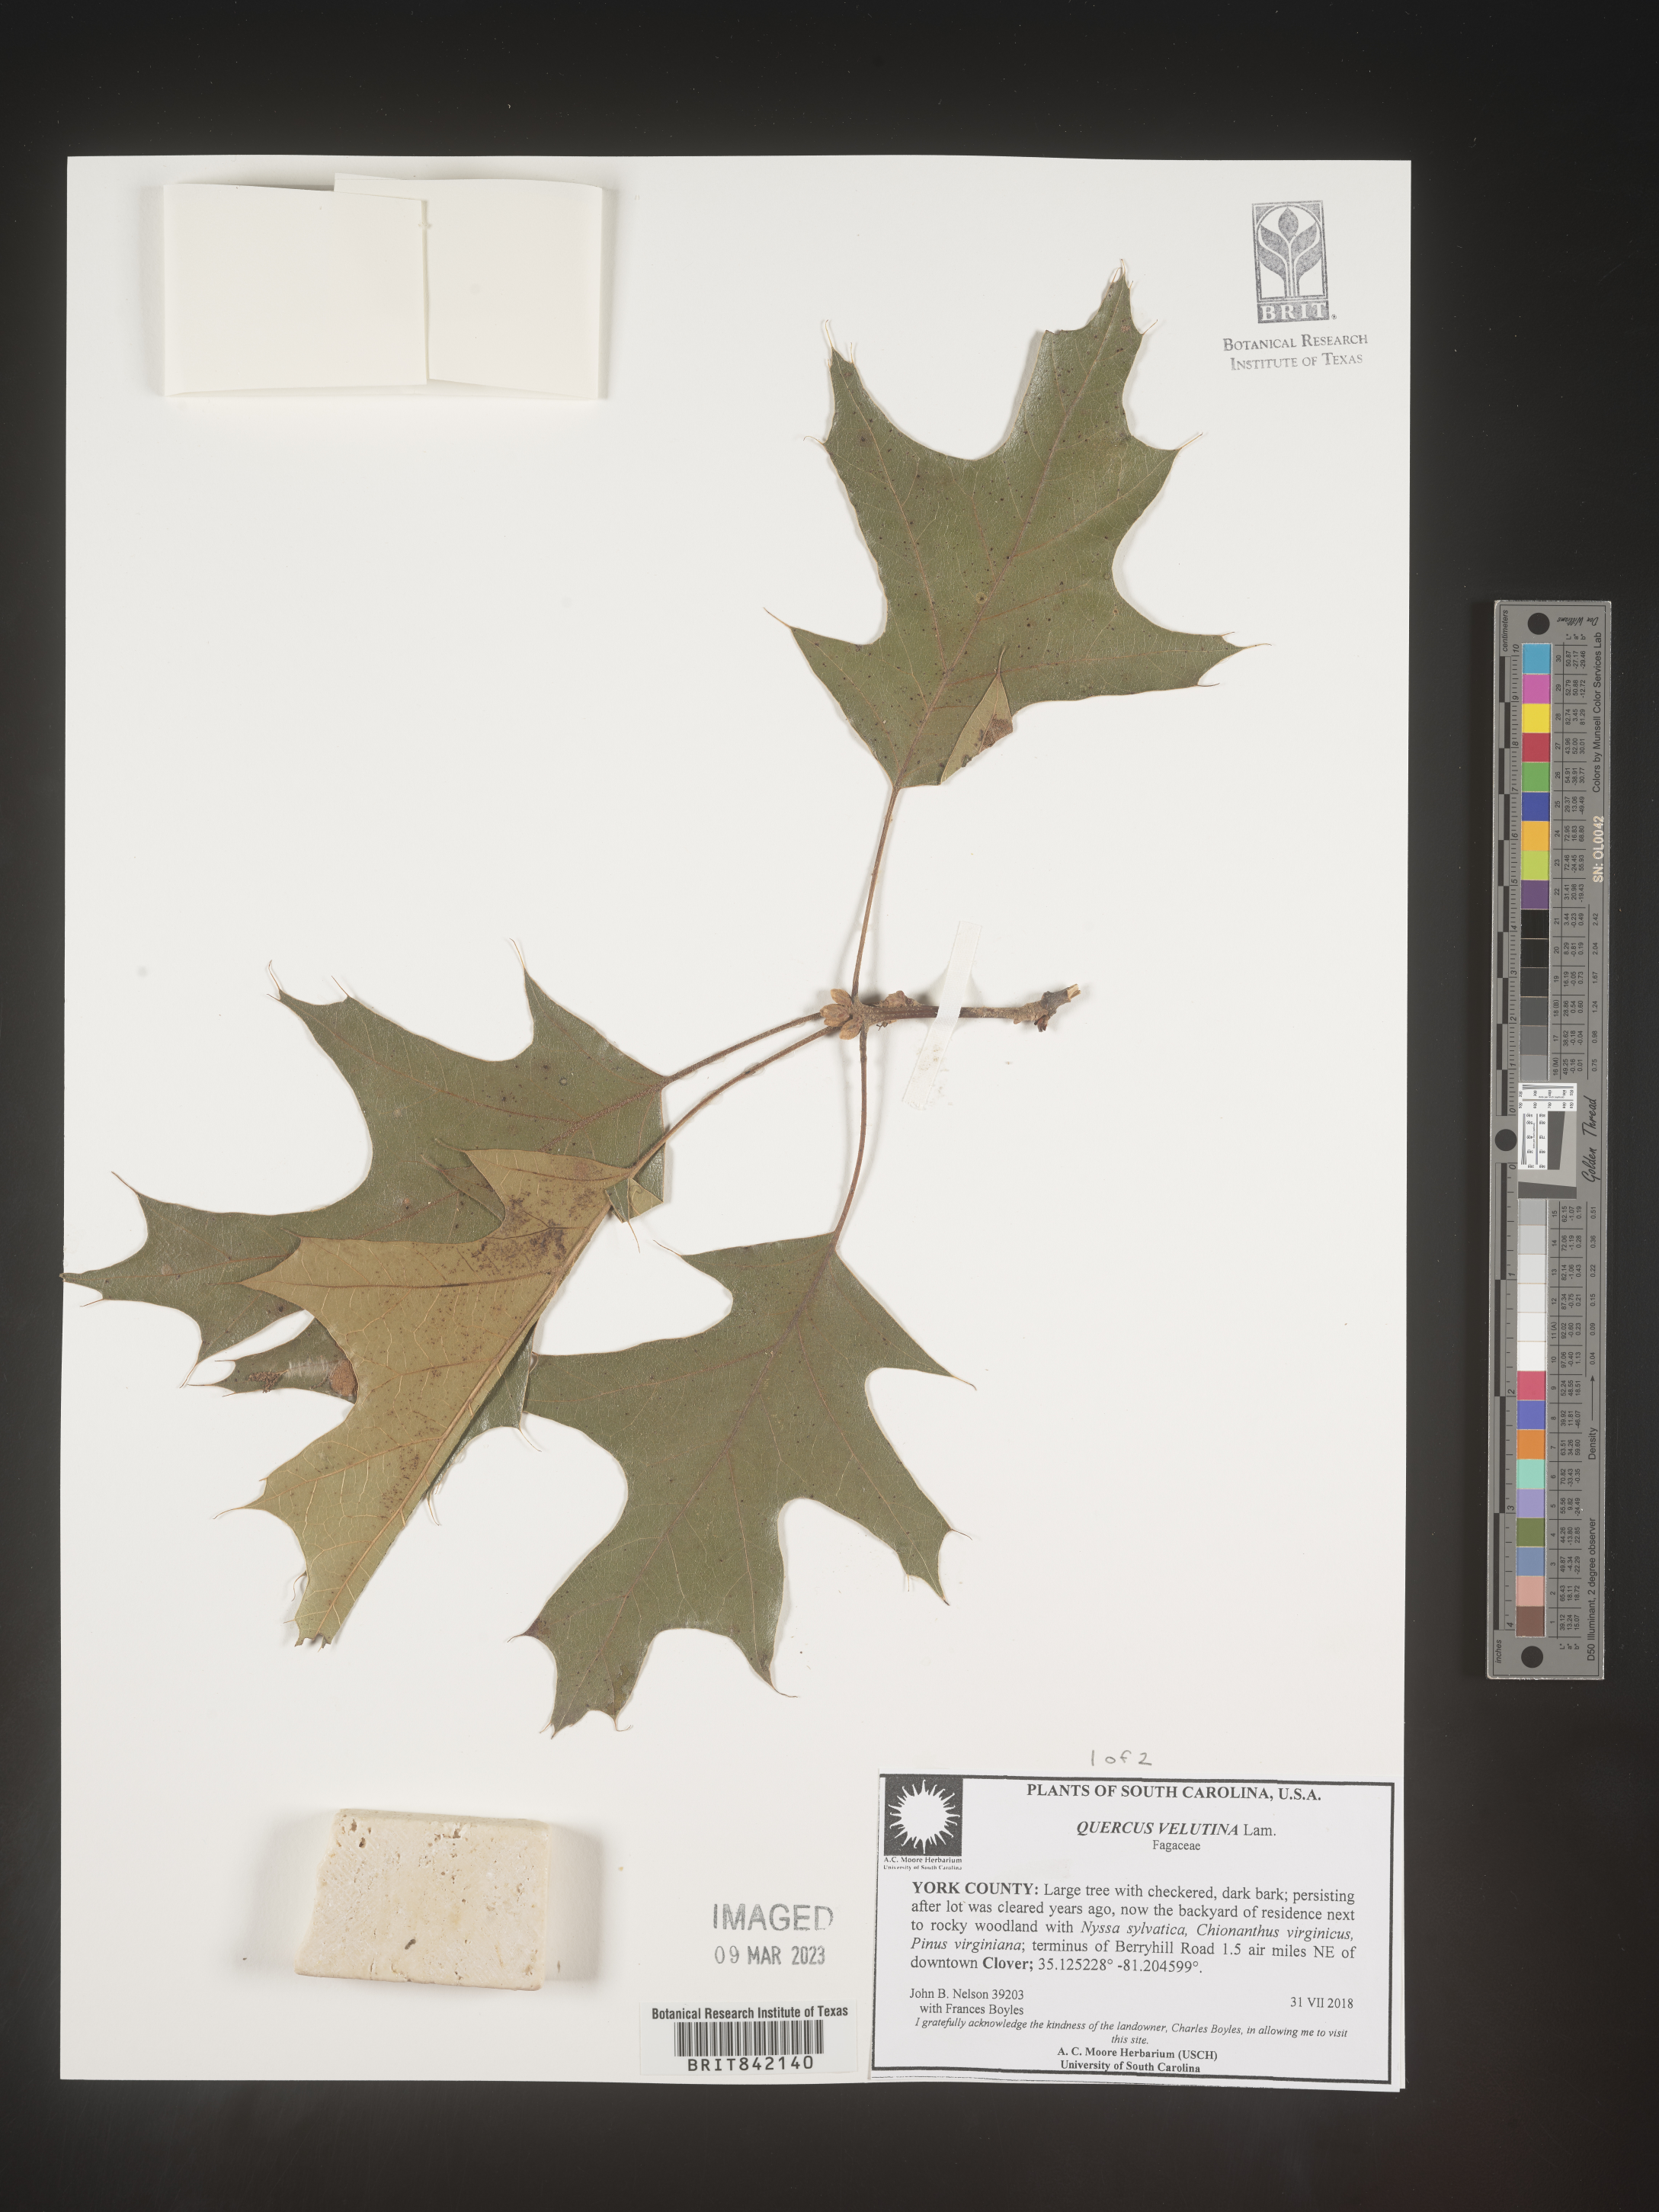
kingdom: Plantae
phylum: Tracheophyta
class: Magnoliopsida
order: Fagales
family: Fagaceae
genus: Quercus
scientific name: Quercus velutina
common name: Black oak
